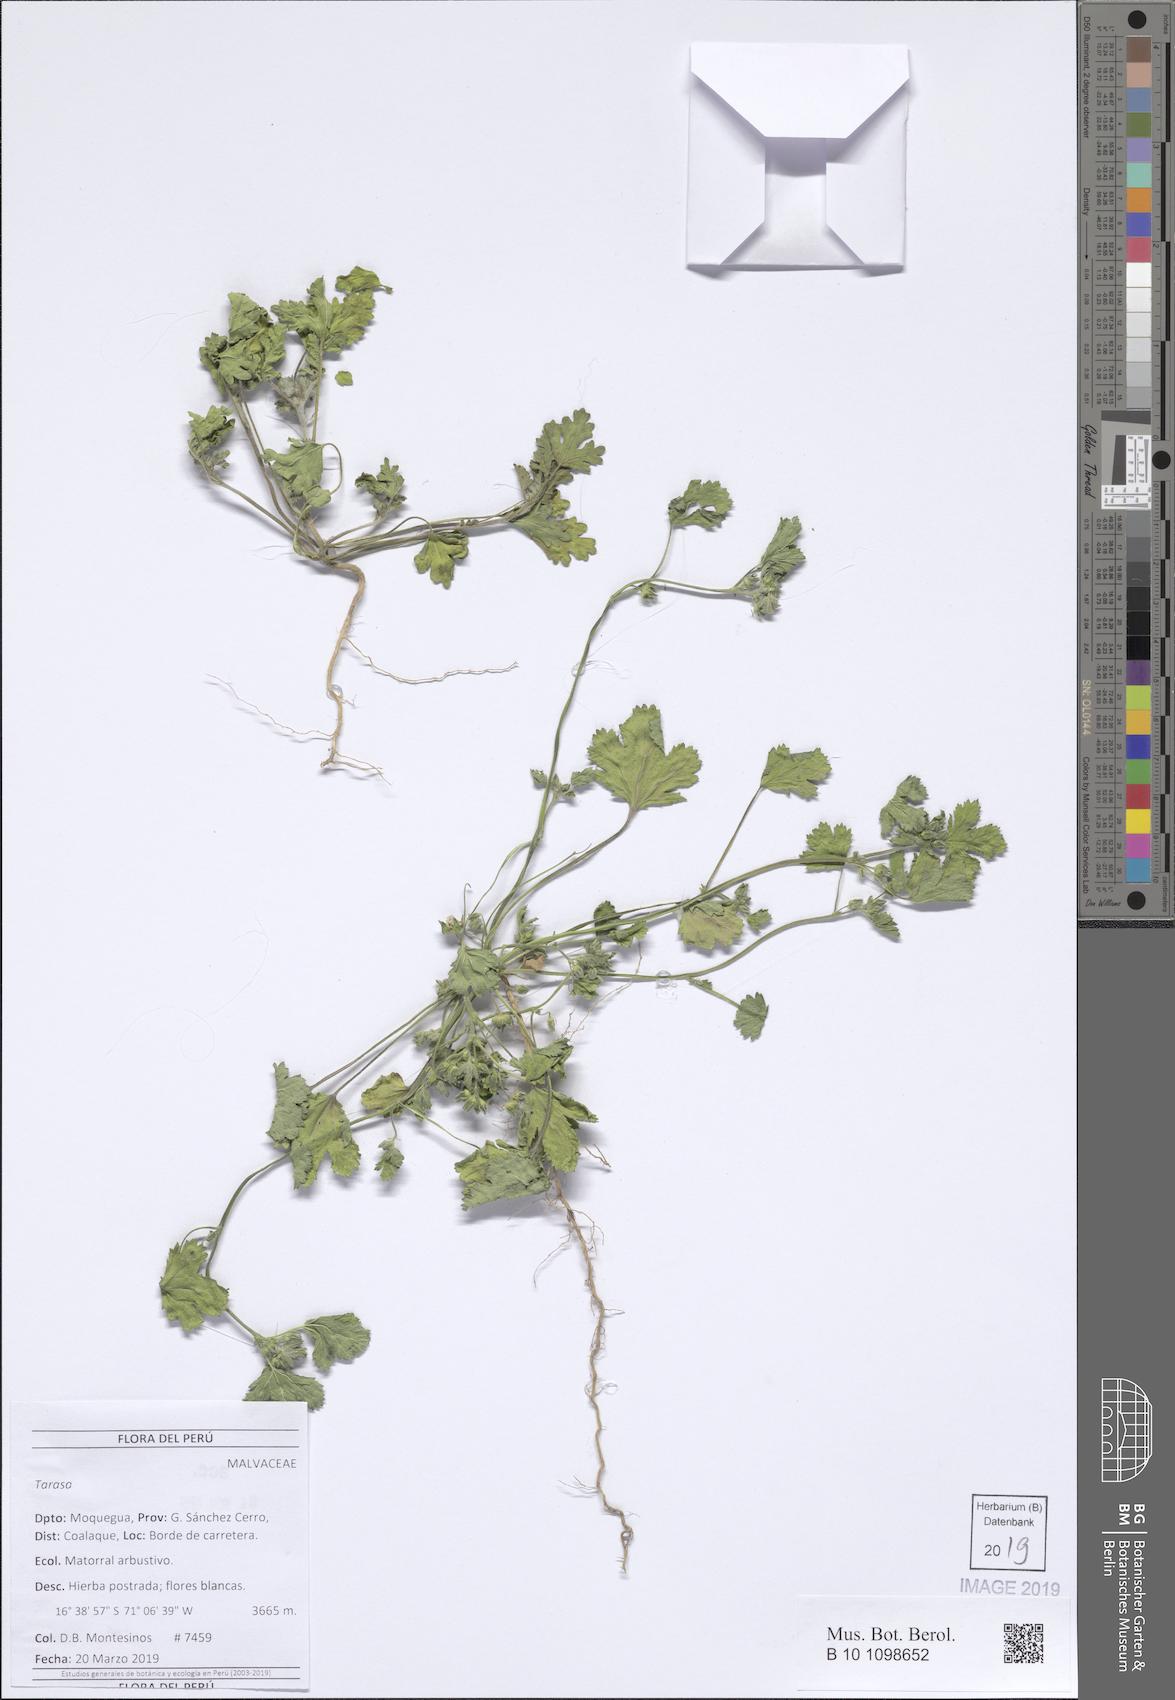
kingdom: Plantae
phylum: Tracheophyta
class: Magnoliopsida
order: Malvales
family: Malvaceae
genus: Tarasa
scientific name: Tarasa
